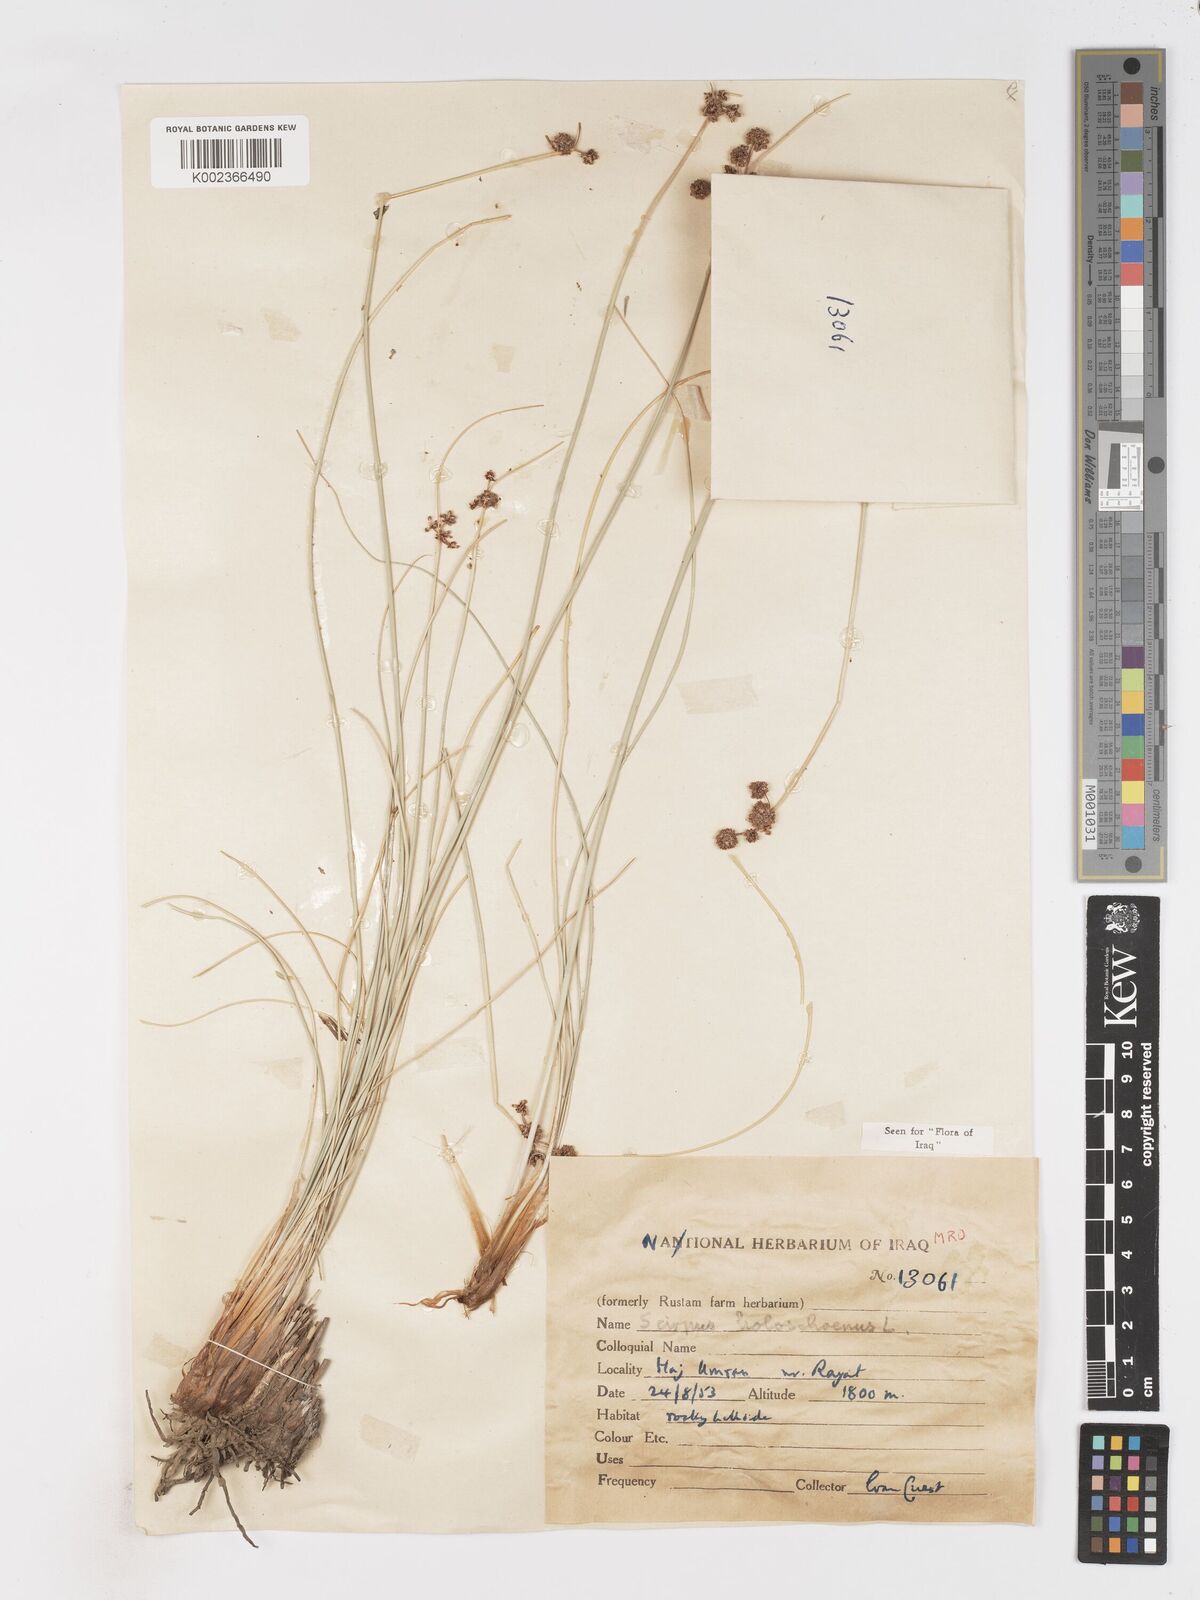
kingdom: Plantae
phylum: Tracheophyta
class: Liliopsida
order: Poales
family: Cyperaceae
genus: Scirpoides
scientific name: Scirpoides holoschoenus
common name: Round-headed club-rush
